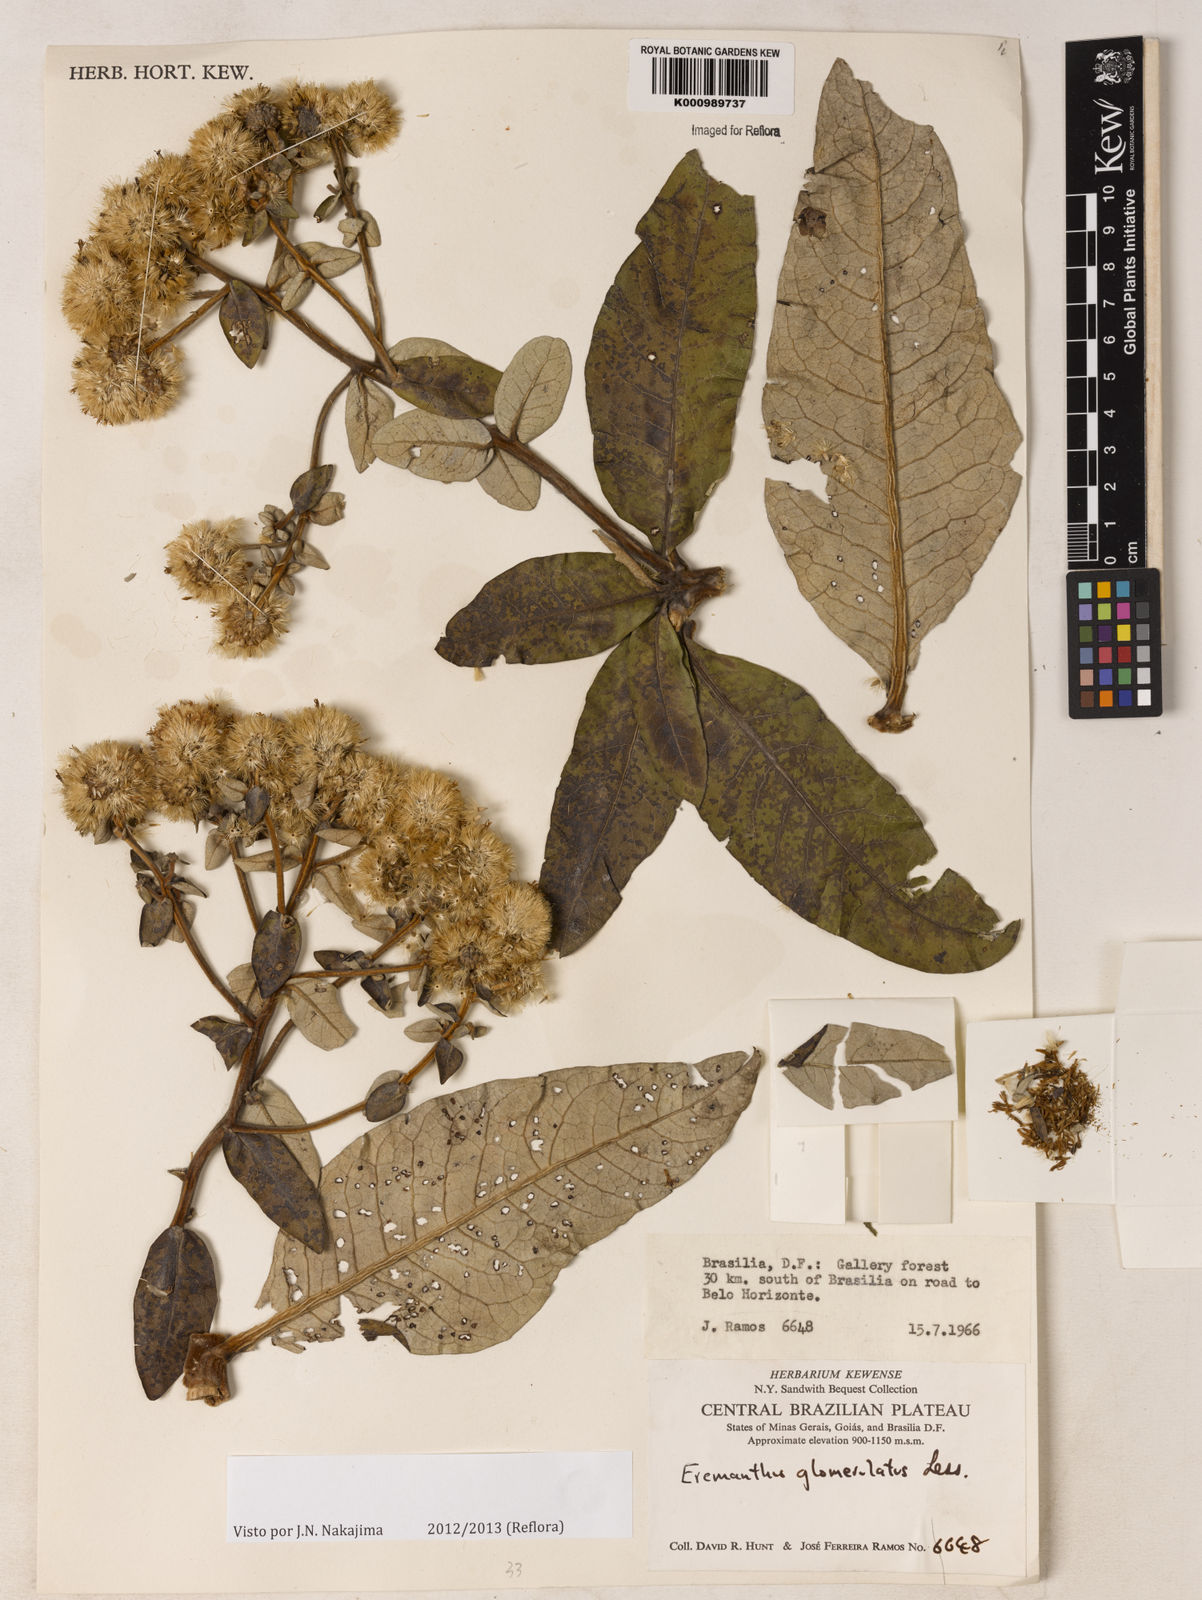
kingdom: Plantae
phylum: Tracheophyta
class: Magnoliopsida
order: Asterales
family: Asteraceae
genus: Eremanthus
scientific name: Eremanthus glomerulatus
